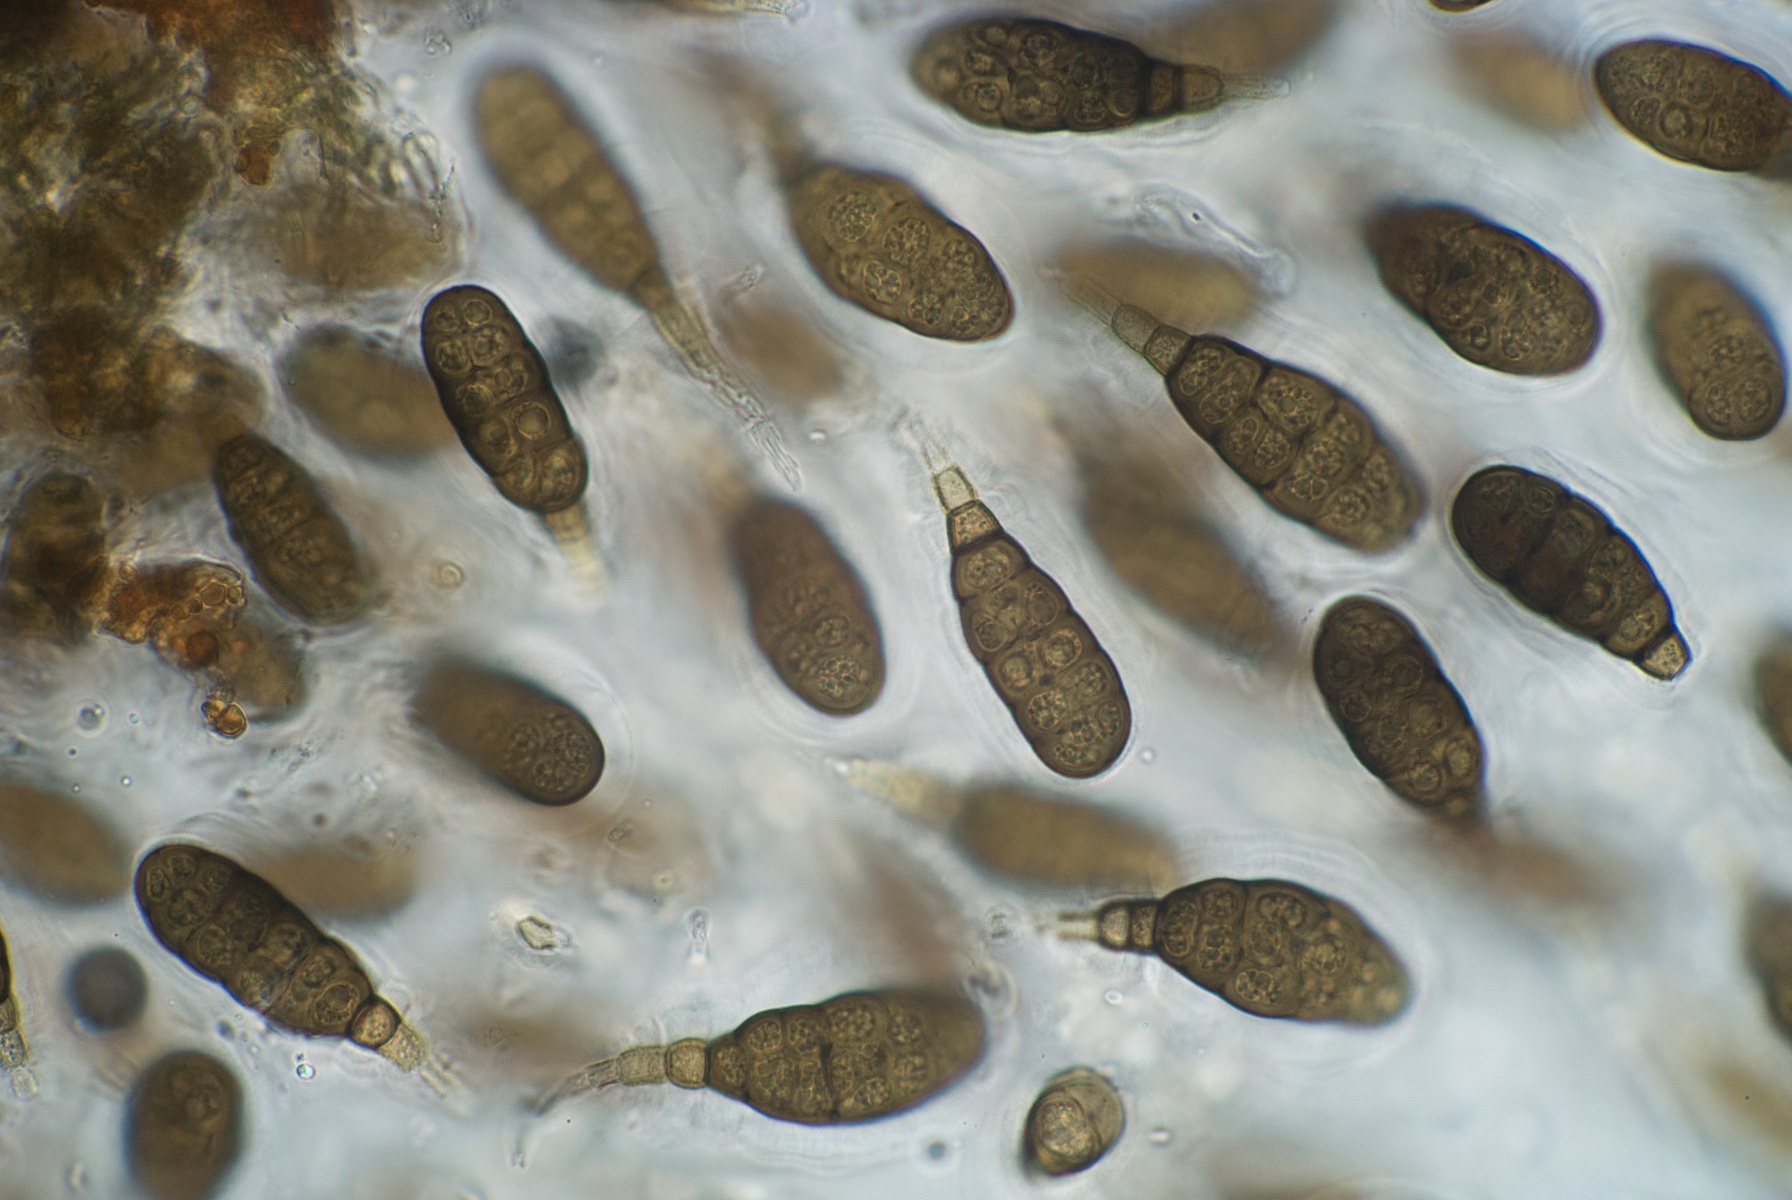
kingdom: Fungi
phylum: Ascomycota
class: Dothideomycetes
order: Pleosporales
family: Pleomassariaceae
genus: Splanchnonema
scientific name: Splanchnonema argus
